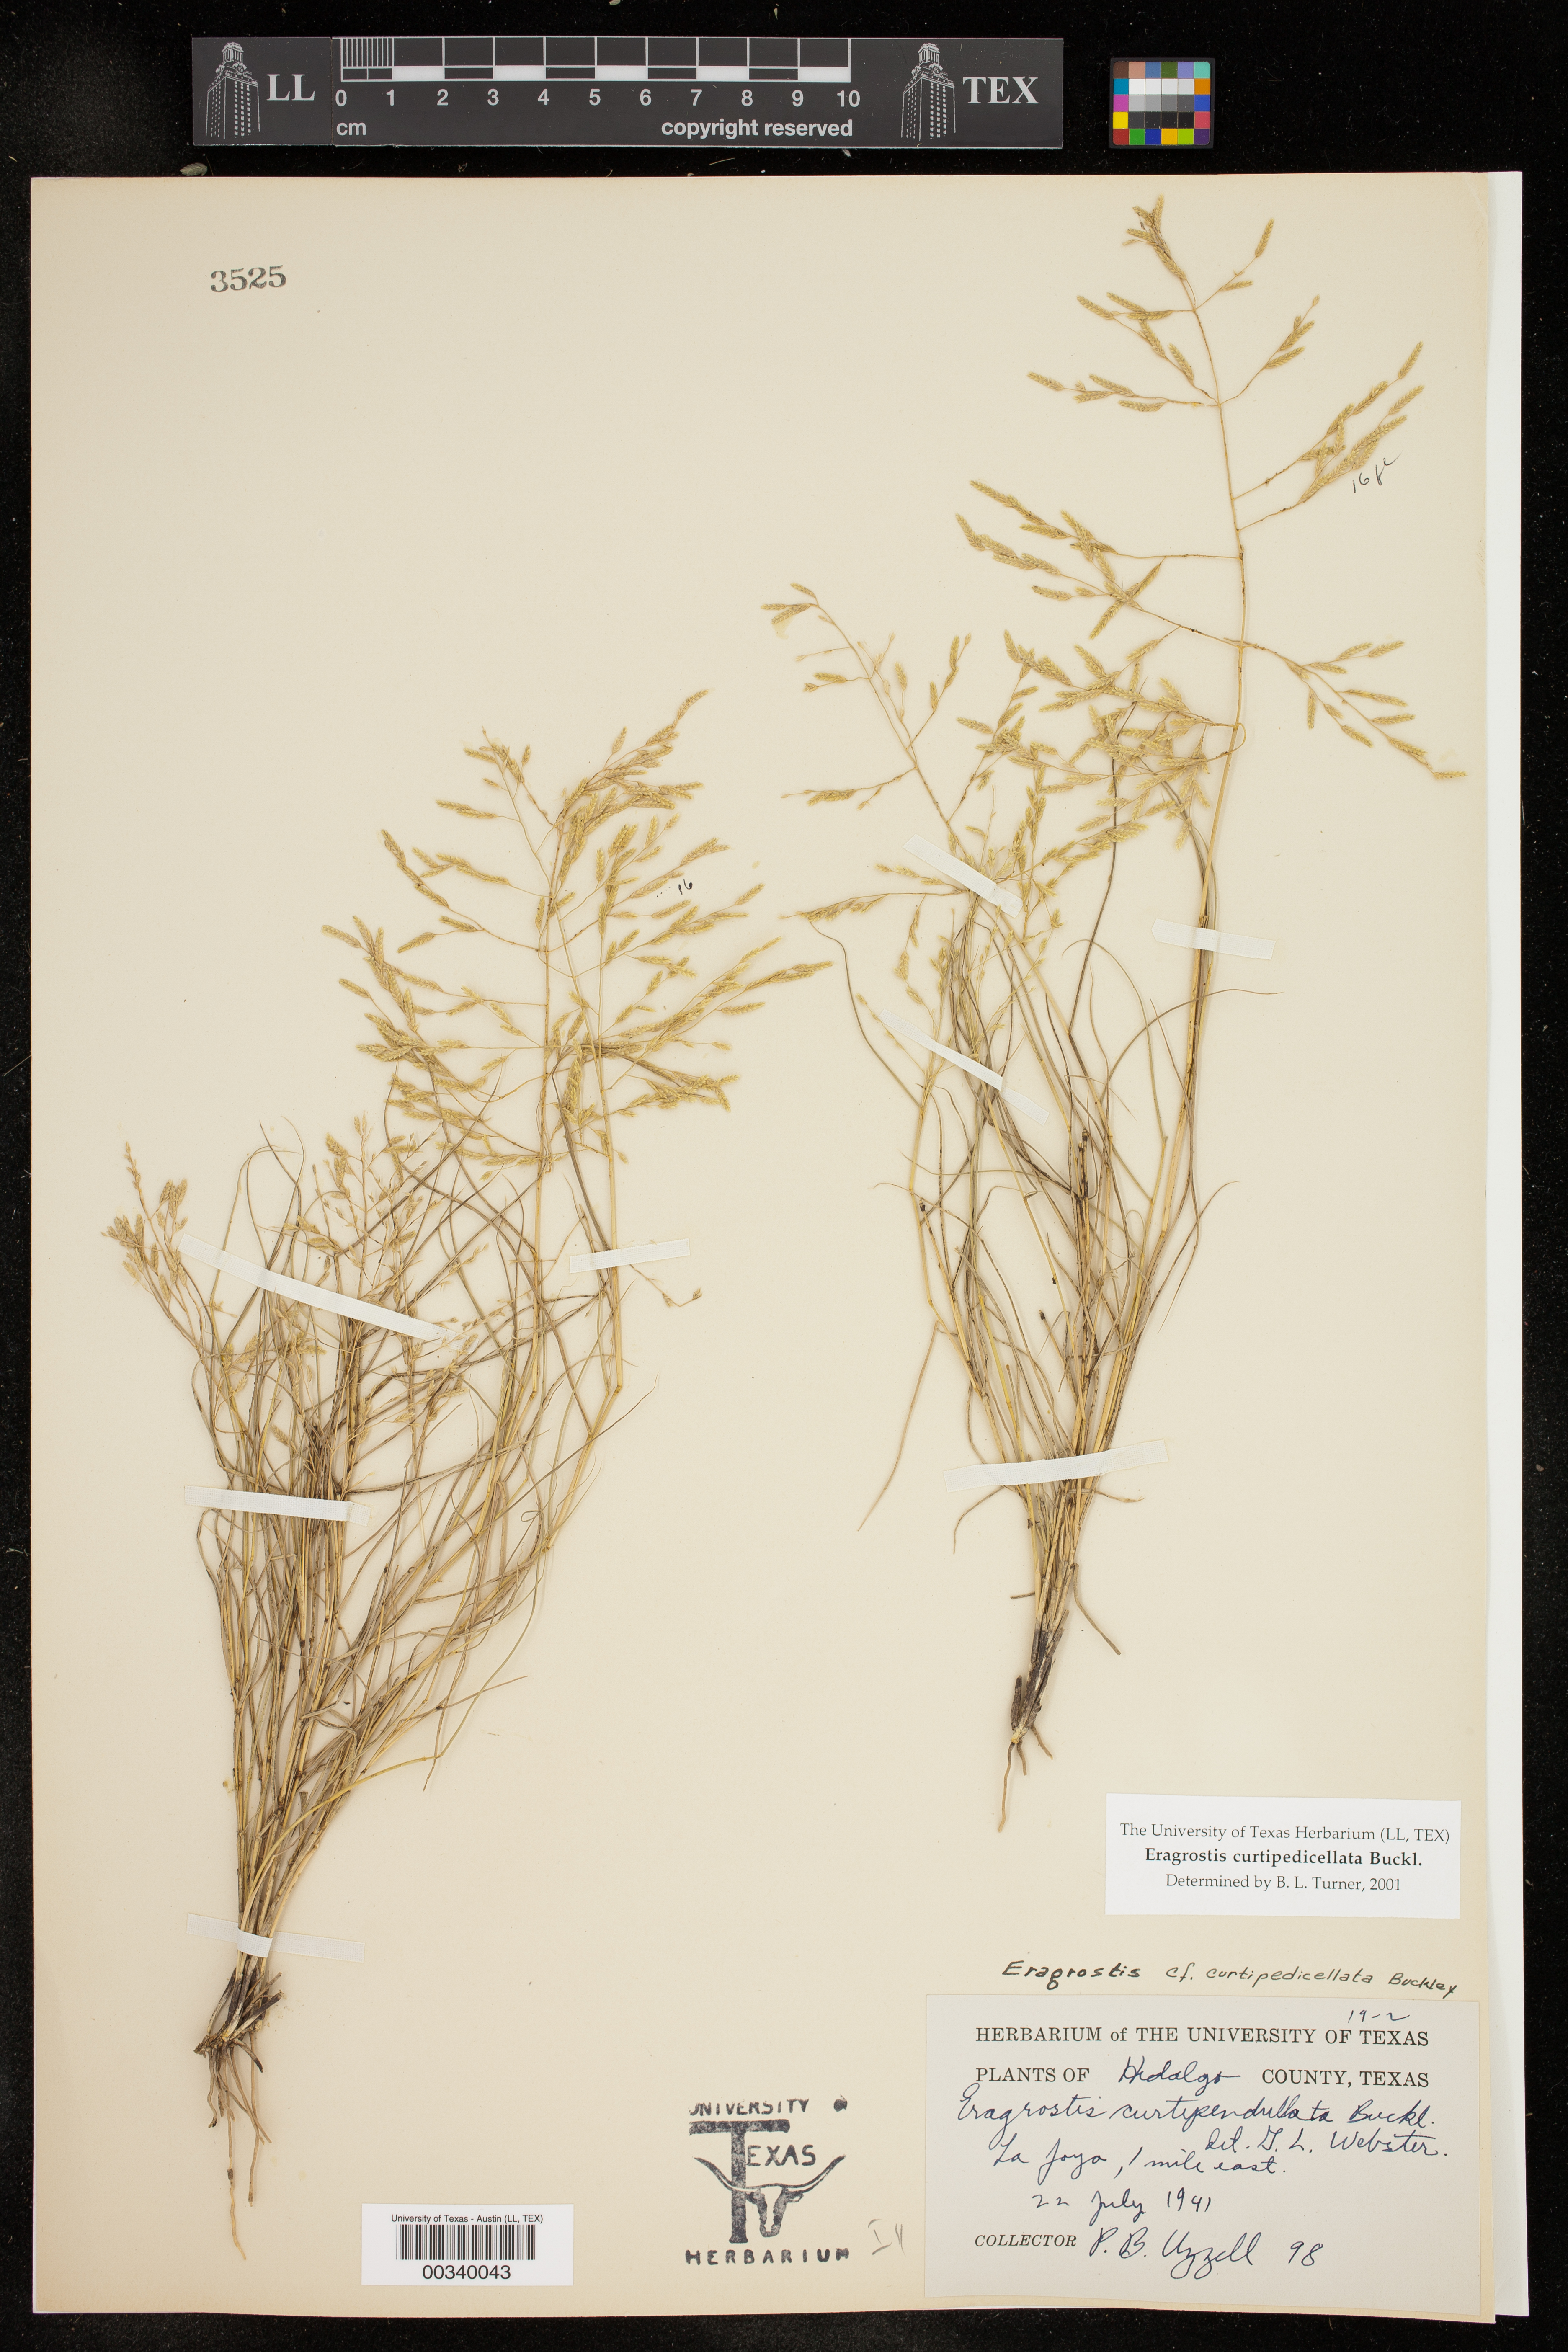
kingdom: Plantae
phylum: Tracheophyta
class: Liliopsida
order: Poales
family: Poaceae
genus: Eragrostis
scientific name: Eragrostis curtipedicellata
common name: Gummy love grass
